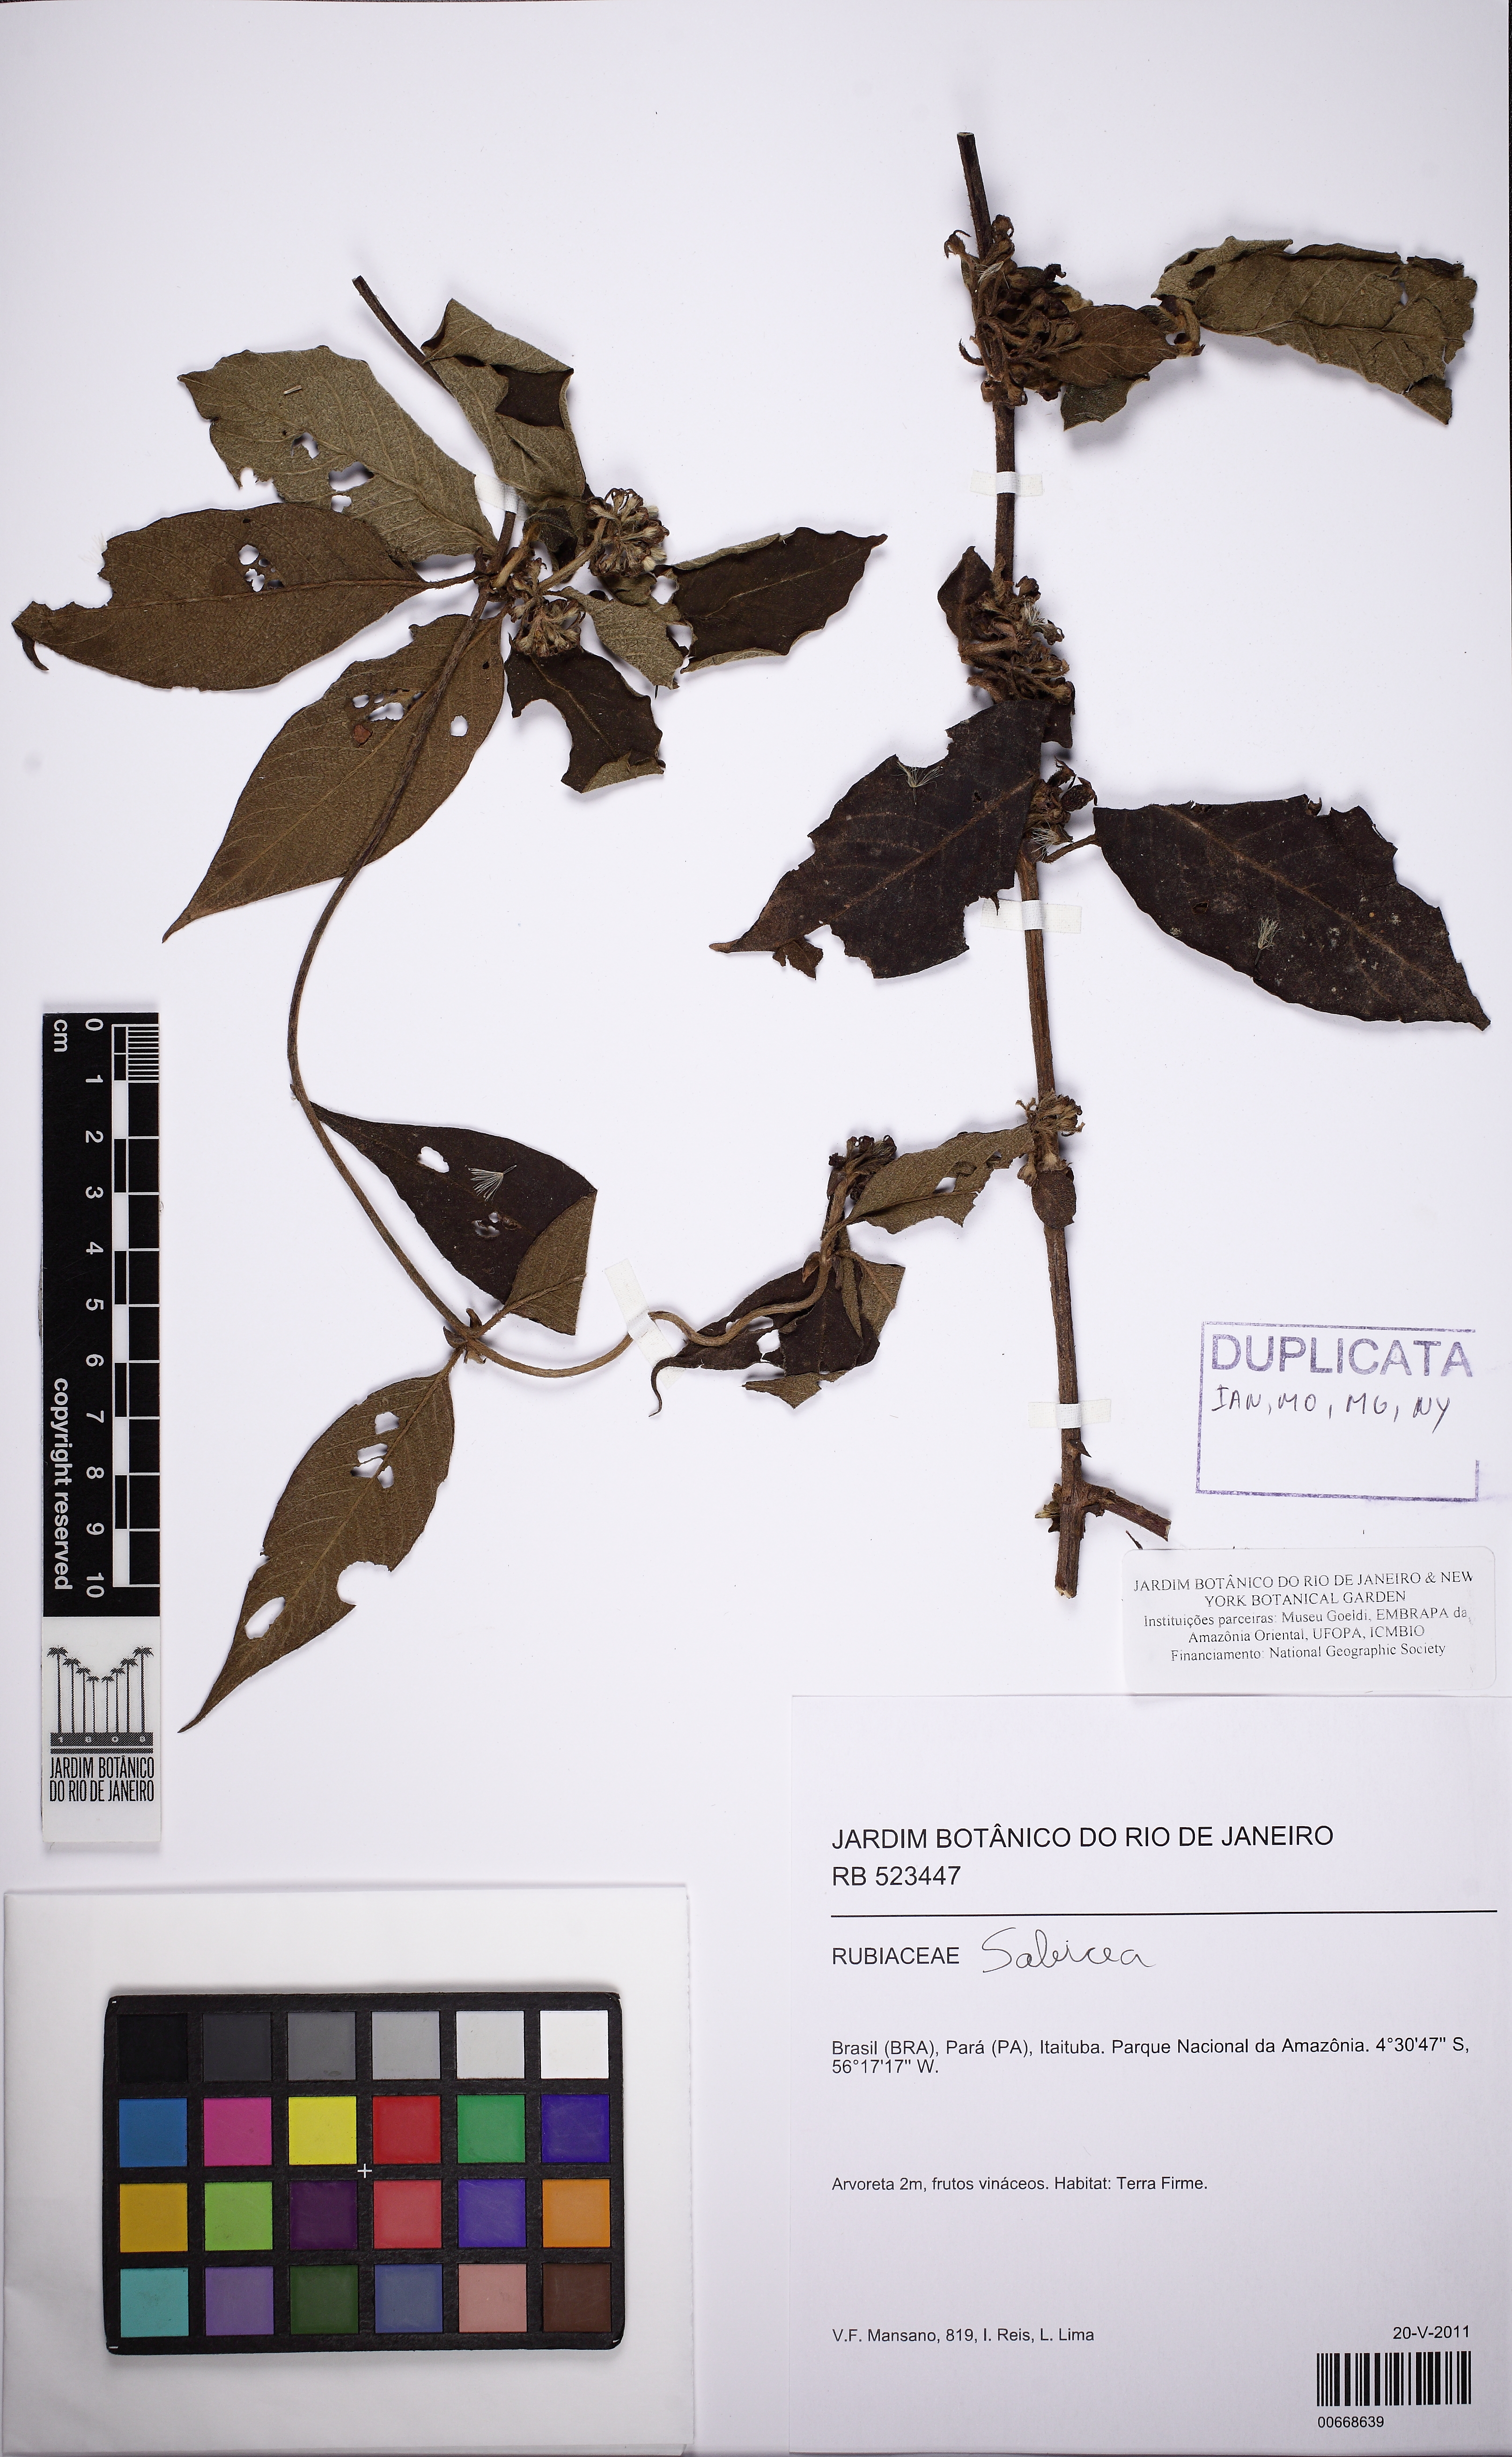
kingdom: Plantae
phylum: Tracheophyta
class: Magnoliopsida
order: Gentianales
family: Rubiaceae
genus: Sabicea
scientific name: Sabicea
